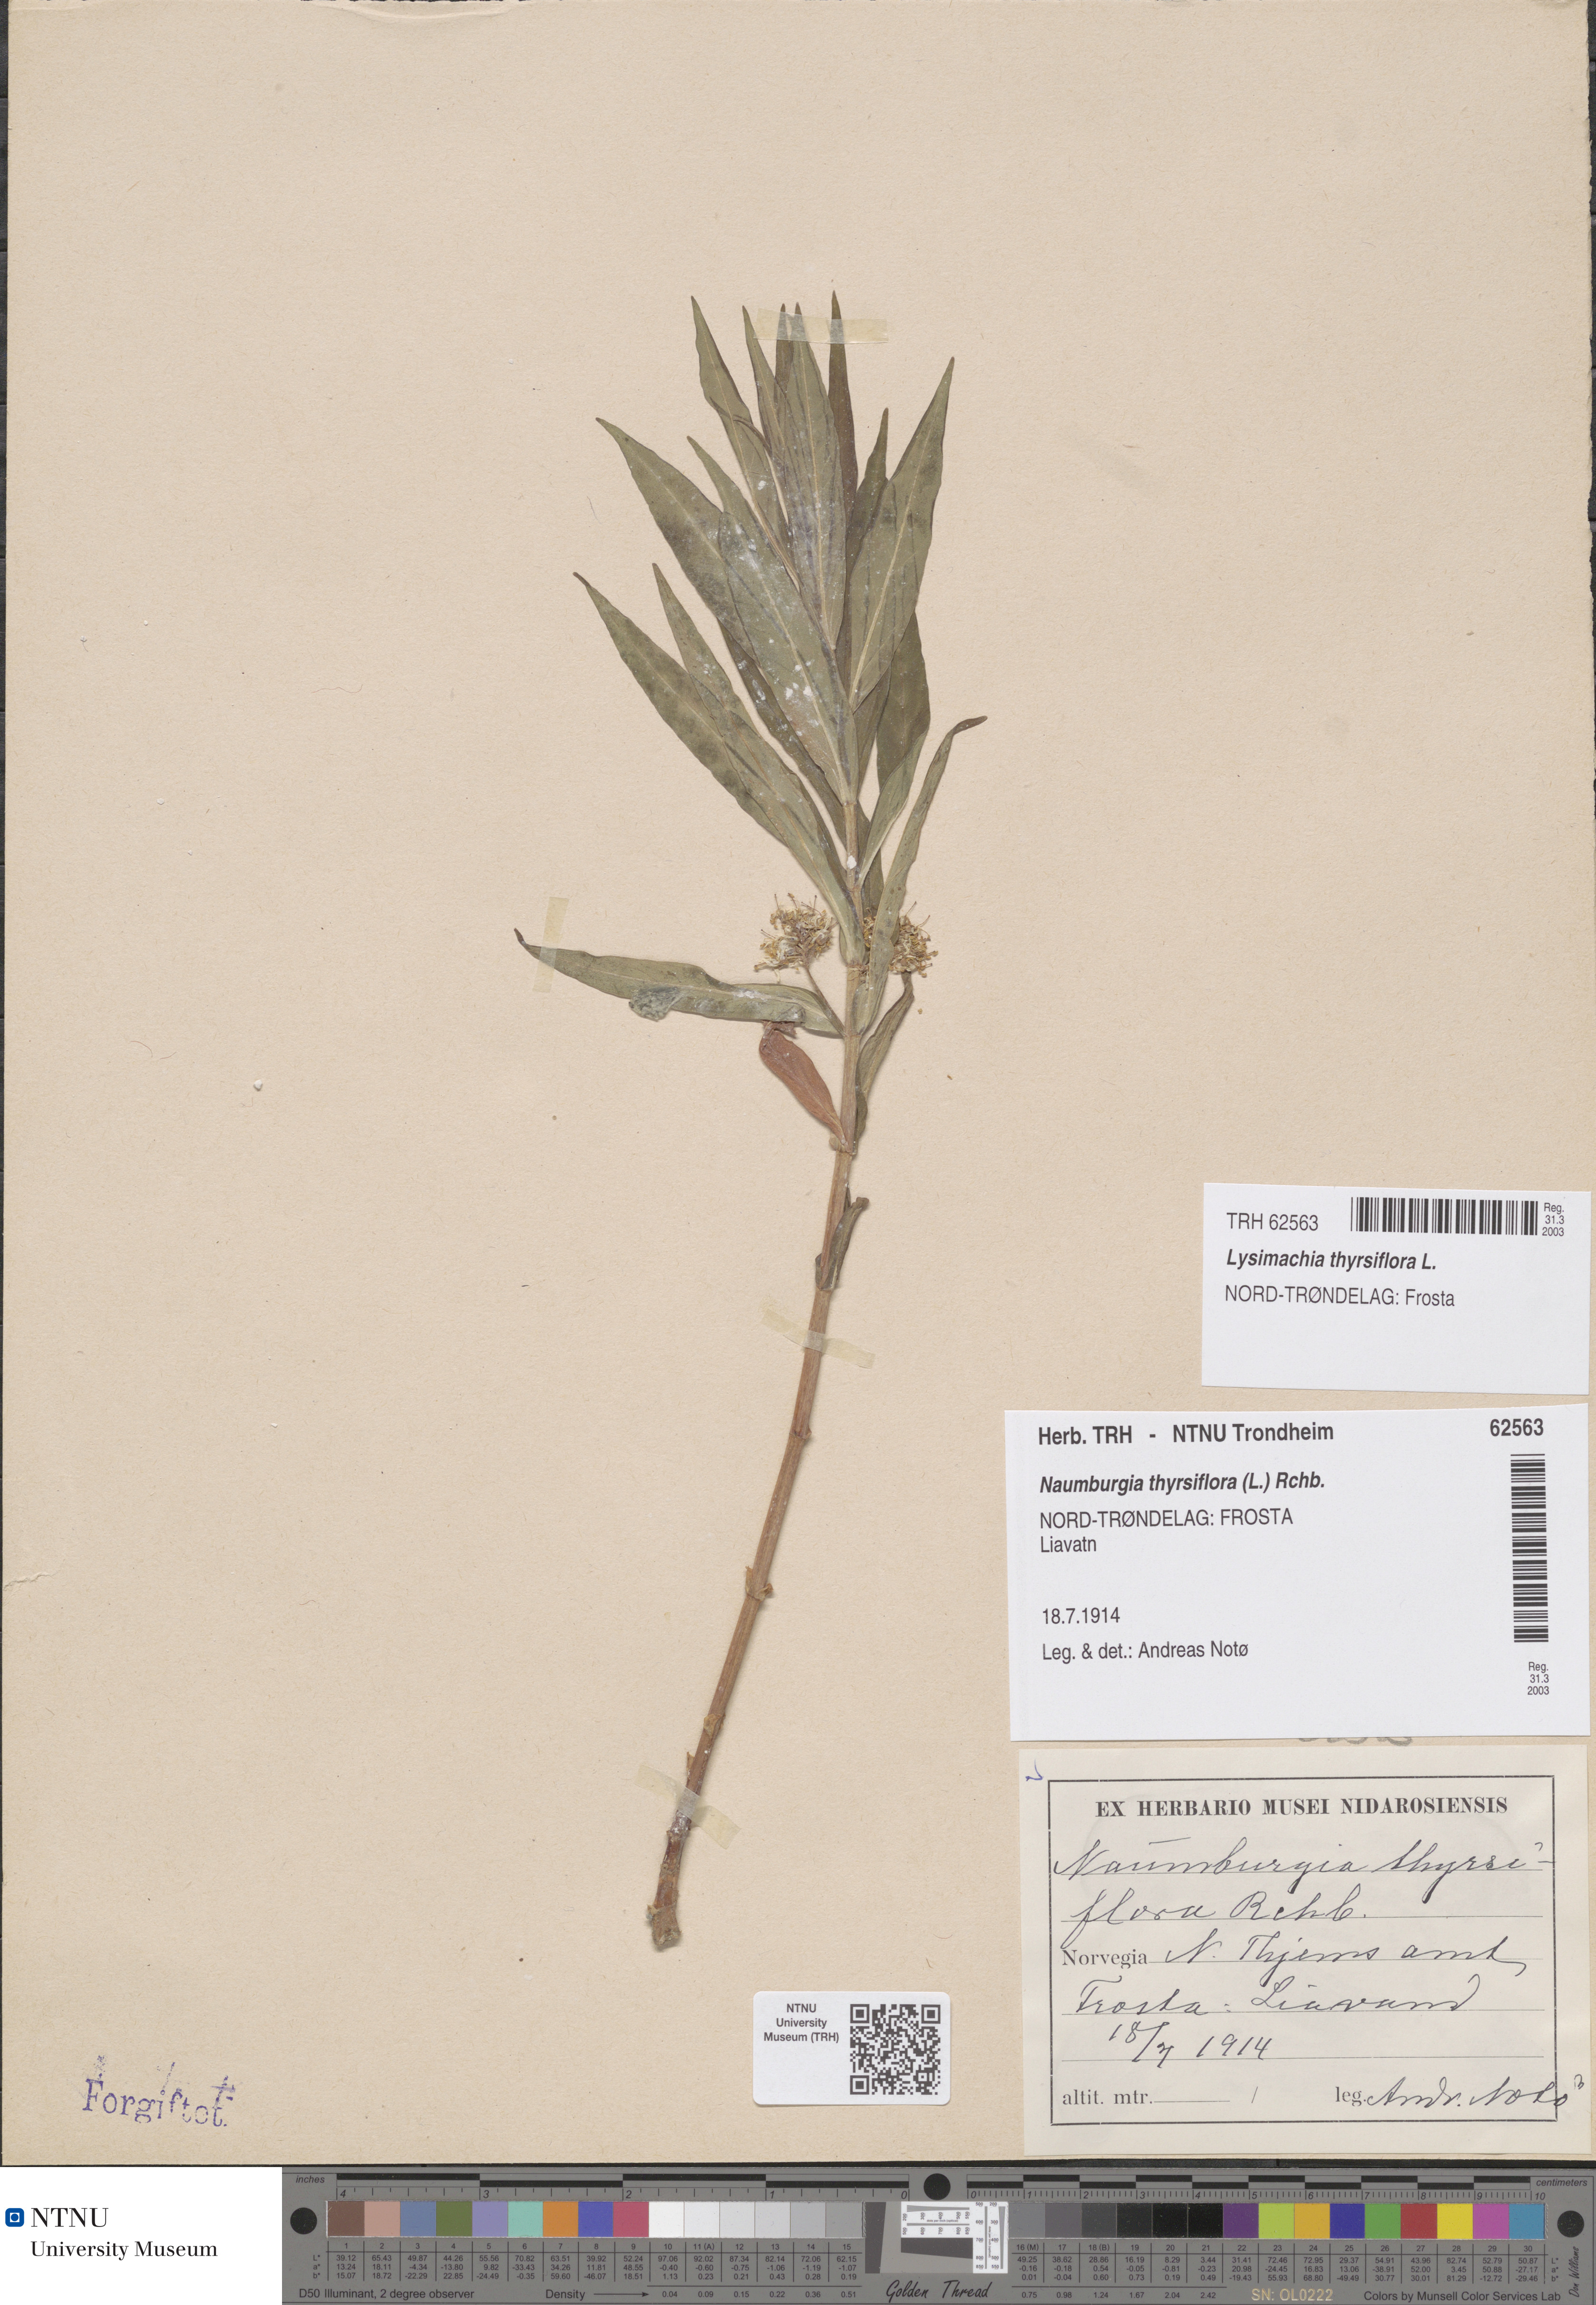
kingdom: Plantae
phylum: Tracheophyta
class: Magnoliopsida
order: Ericales
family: Primulaceae
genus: Lysimachia
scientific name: Lysimachia thyrsiflora
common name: Tufted loosestrife
